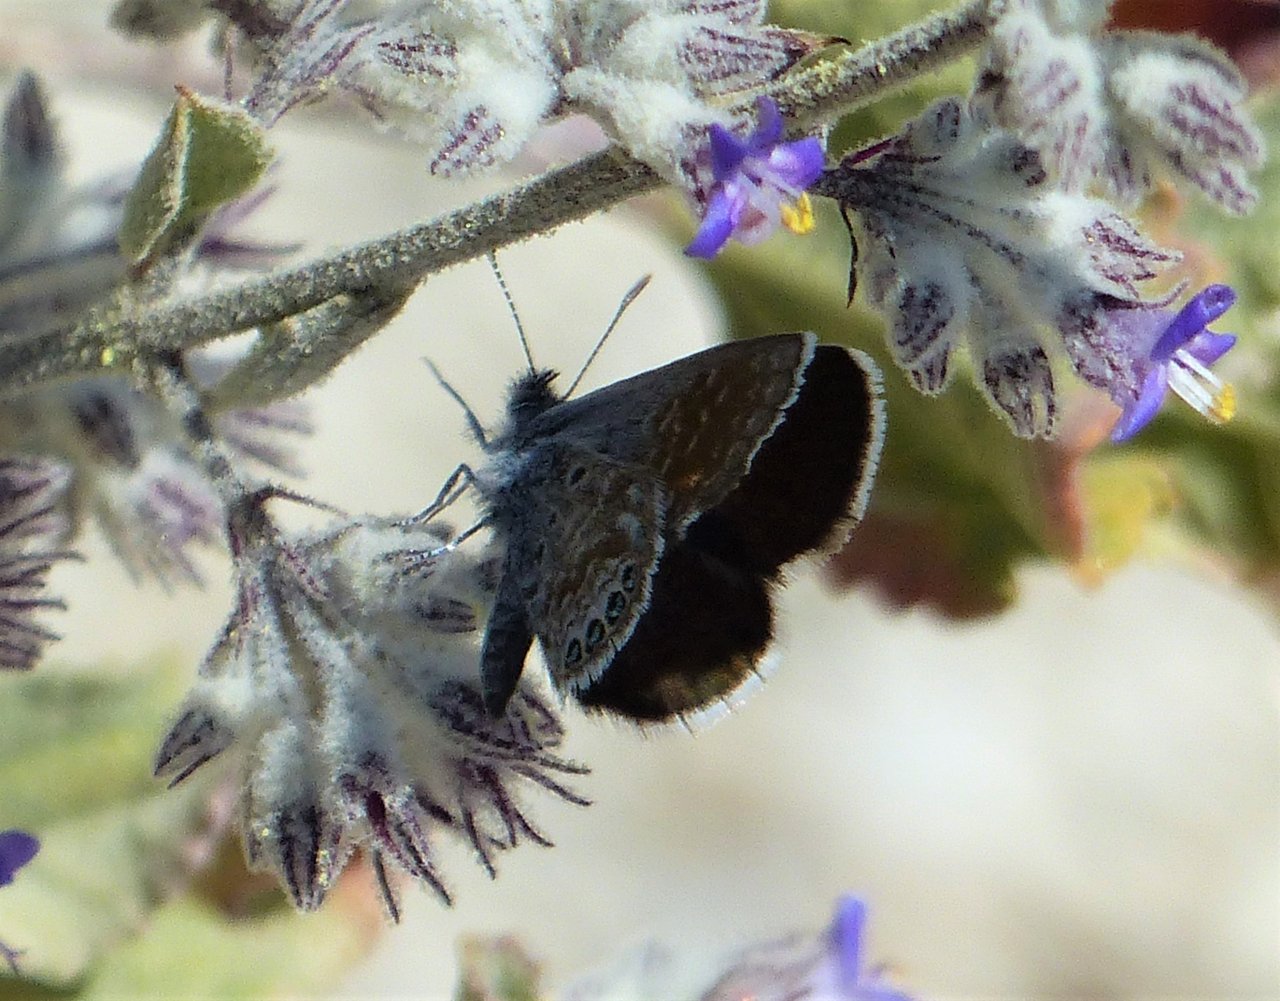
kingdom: Animalia
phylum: Arthropoda
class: Insecta
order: Lepidoptera
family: Lycaenidae
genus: Brephidium
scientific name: Brephidium exilis
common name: Western Pygmy-Blue
